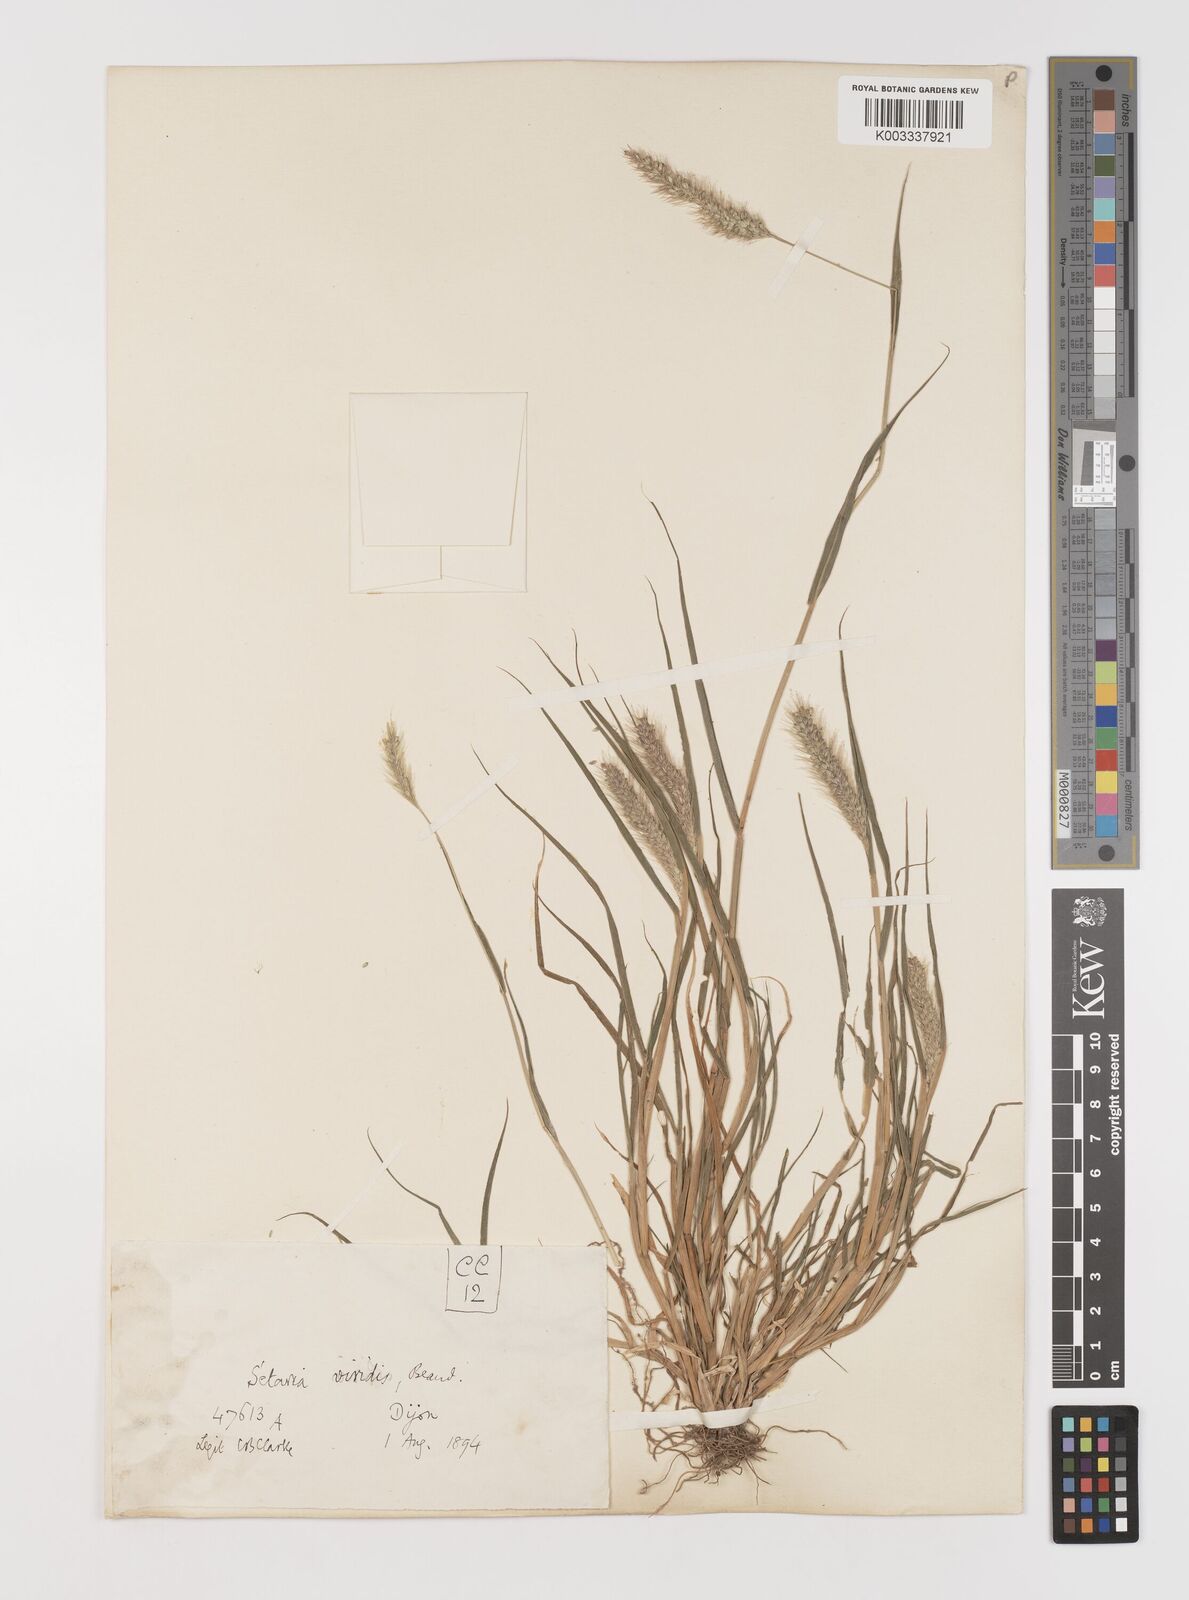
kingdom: Plantae
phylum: Tracheophyta
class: Liliopsida
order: Poales
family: Poaceae
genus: Setaria
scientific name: Setaria viridis
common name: Green bristlegrass
